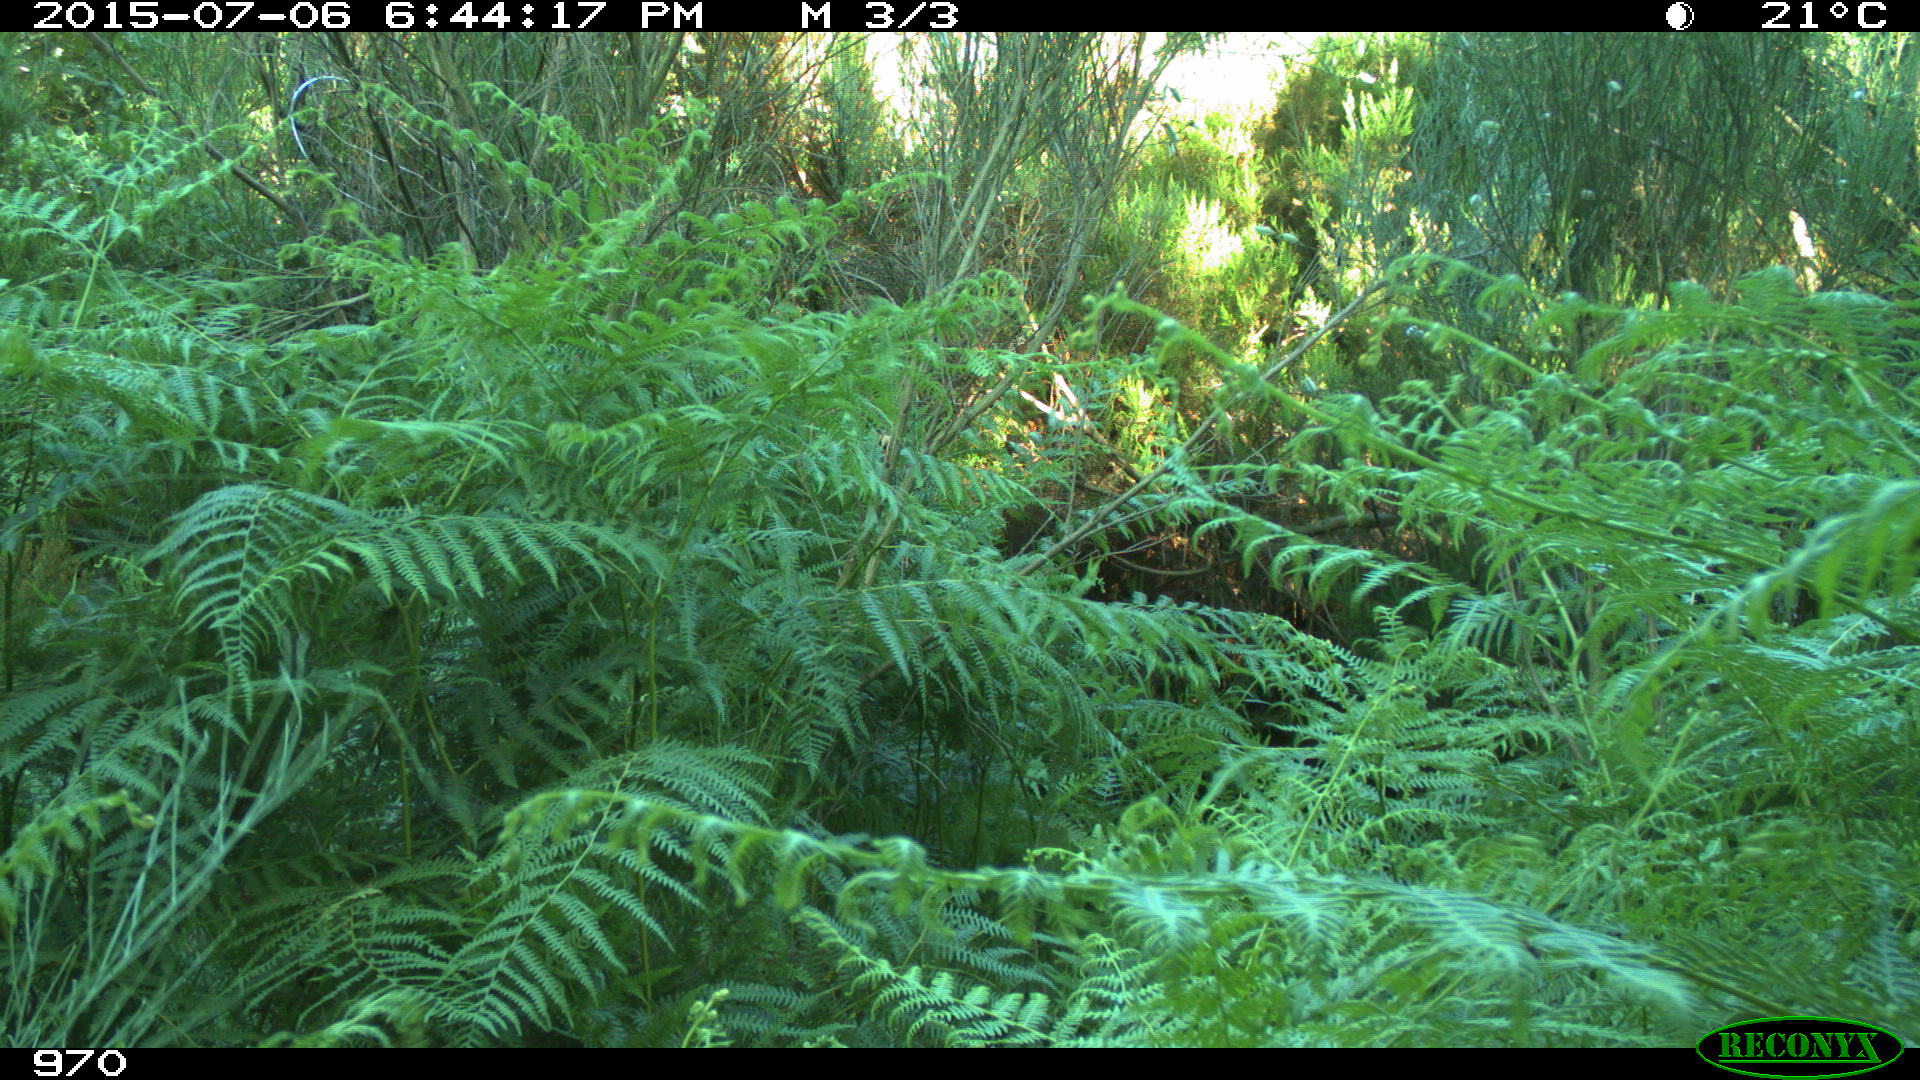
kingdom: Animalia
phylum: Chordata
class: Mammalia
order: Artiodactyla
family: Bovidae
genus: Bos
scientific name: Bos taurus
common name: Domesticated cattle
